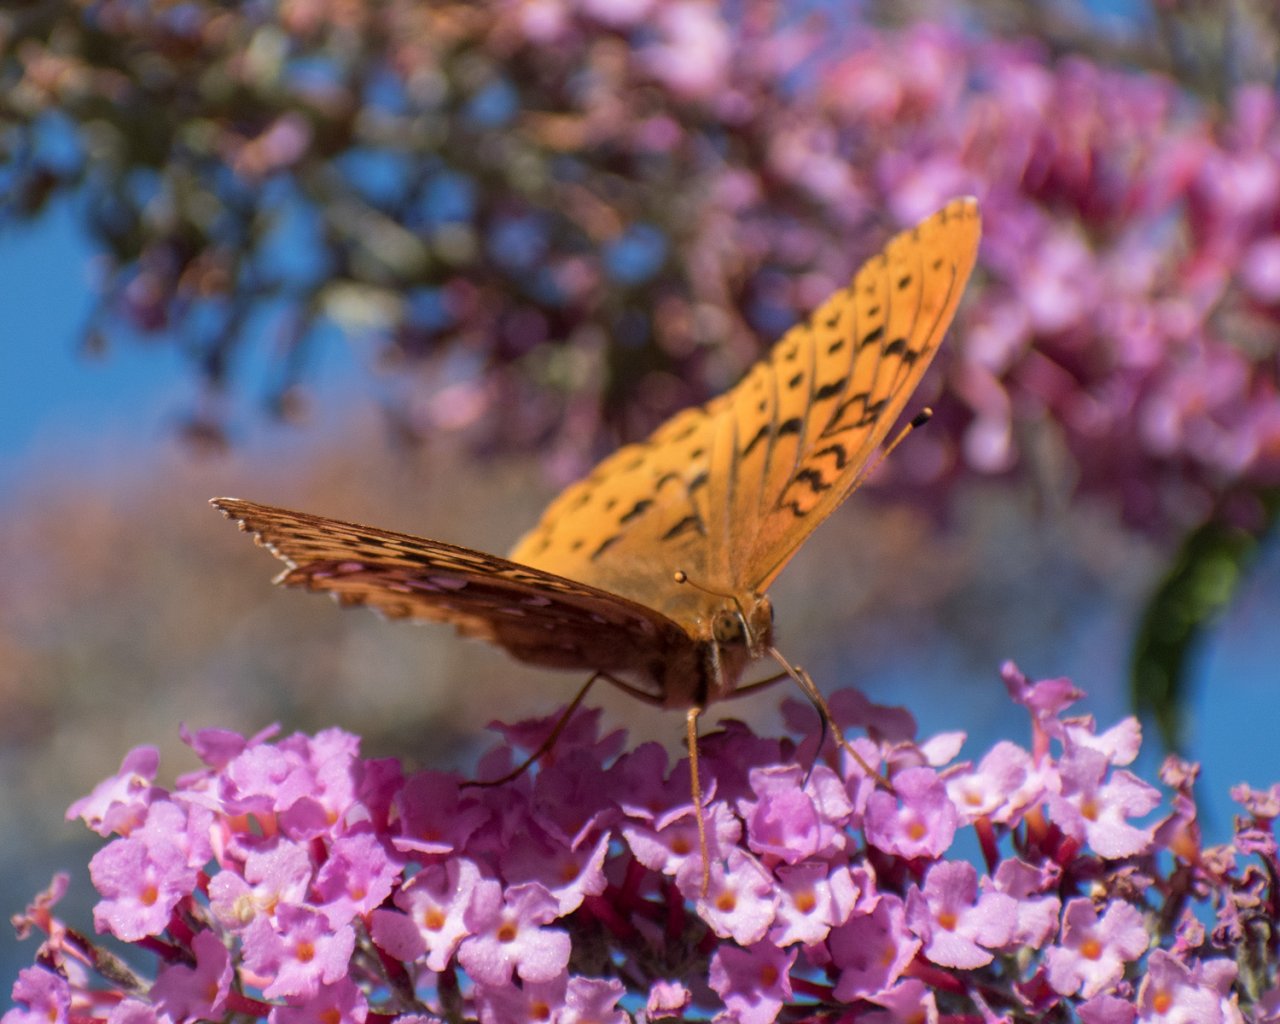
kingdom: Animalia
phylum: Arthropoda
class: Insecta
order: Lepidoptera
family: Nymphalidae
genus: Speyeria
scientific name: Speyeria cybele
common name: Great Spangled Fritillary
